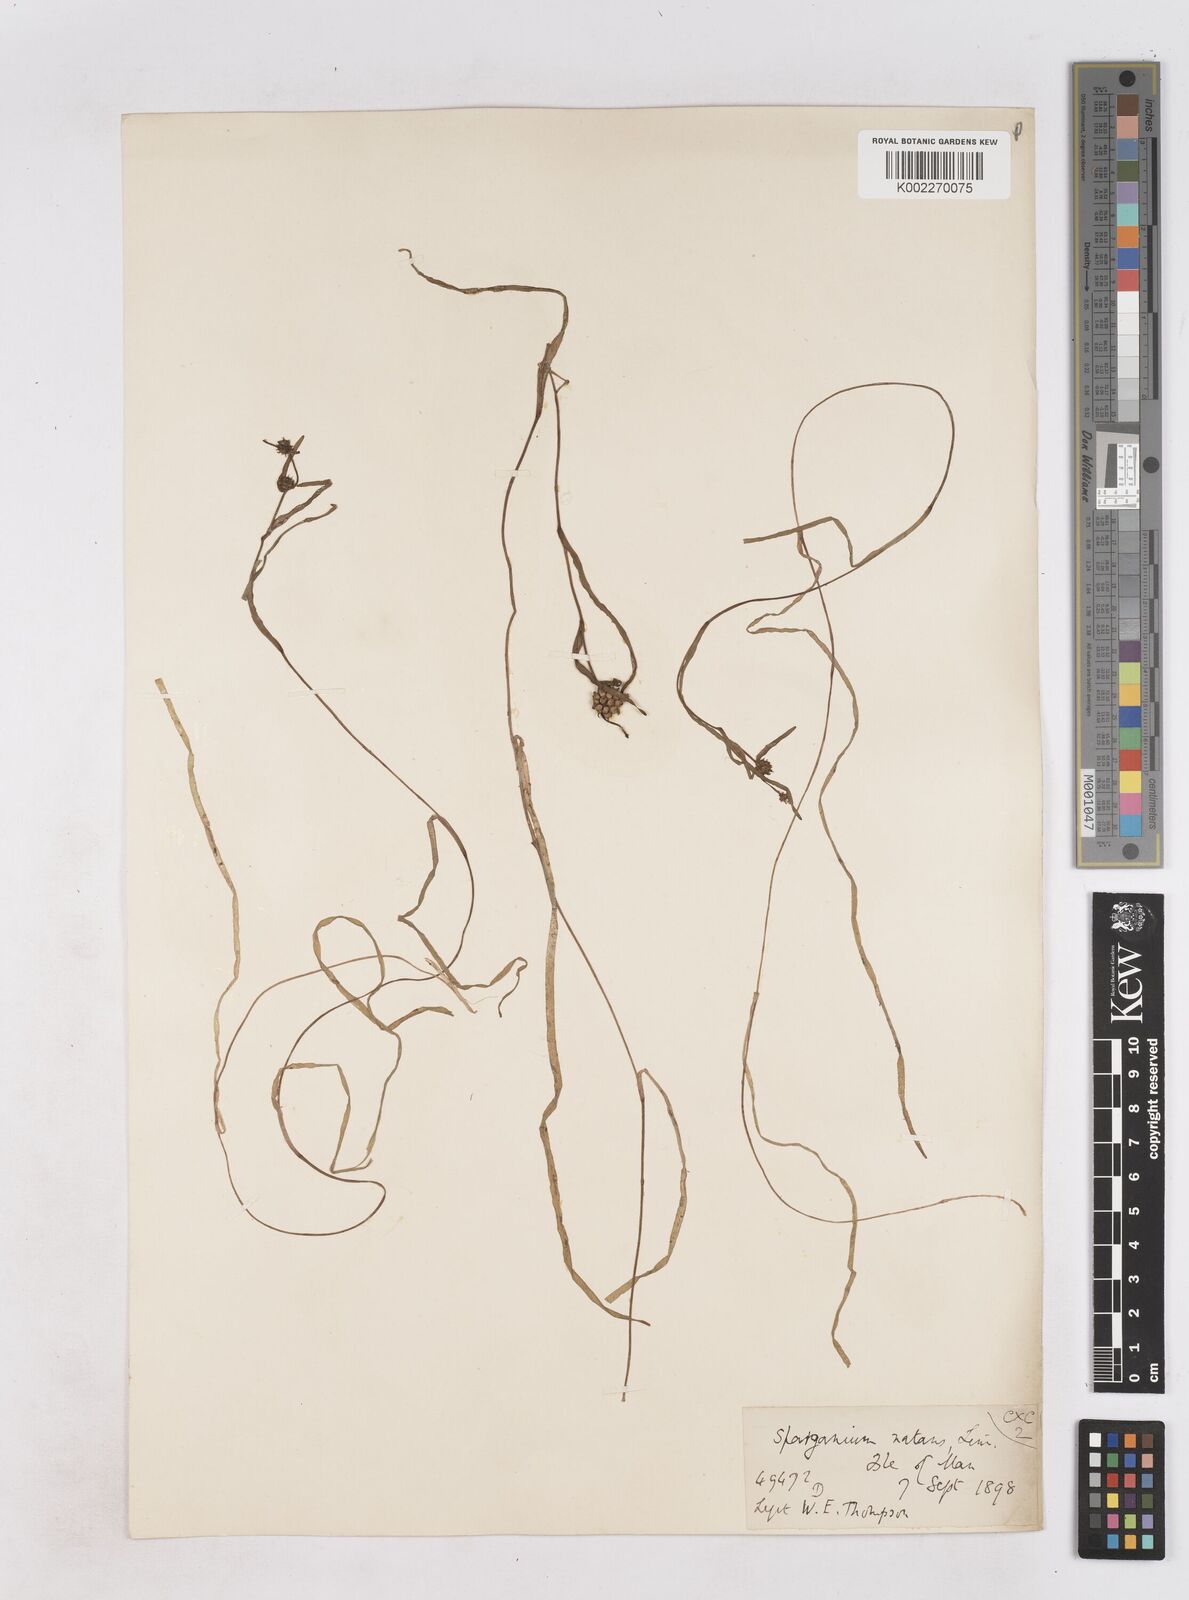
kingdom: Plantae
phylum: Tracheophyta
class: Liliopsida
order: Poales
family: Typhaceae
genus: Sparganium
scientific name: Sparganium natans
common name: Least bur-reed
